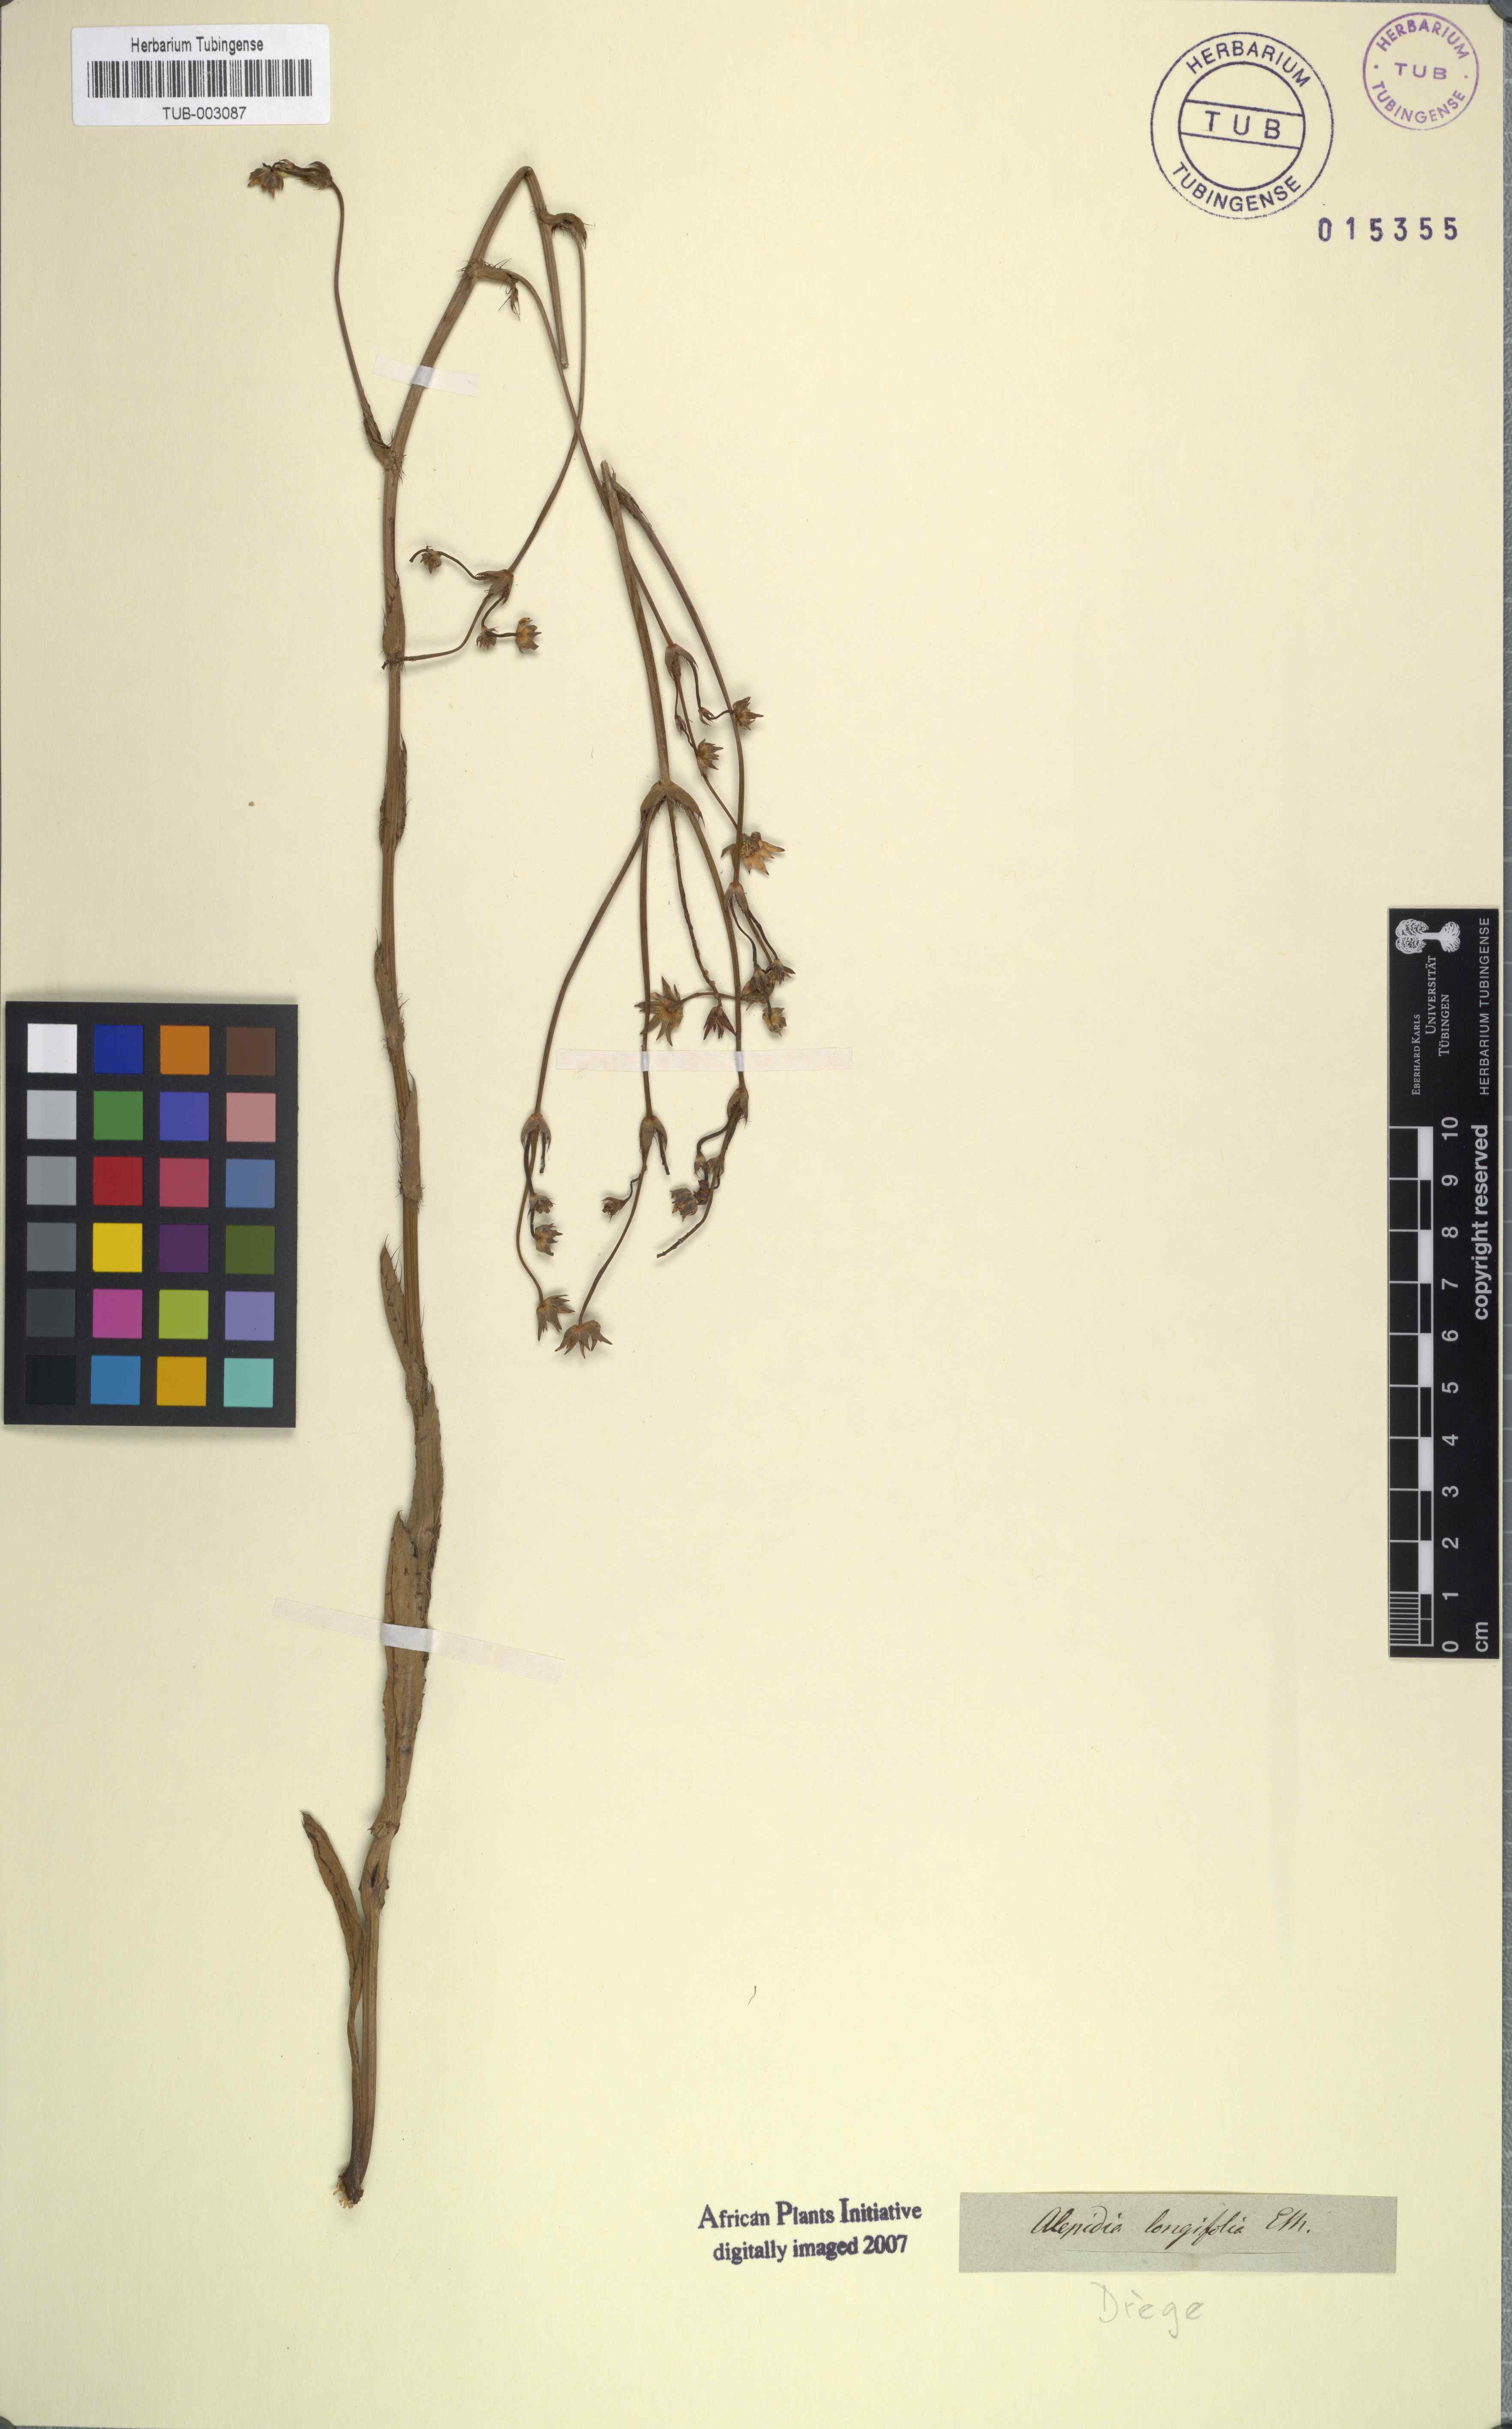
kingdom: Plantae
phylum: Tracheophyta
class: Magnoliopsida
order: Apiales
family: Apiaceae
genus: Alepidea
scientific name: Alepidea amatymbica
